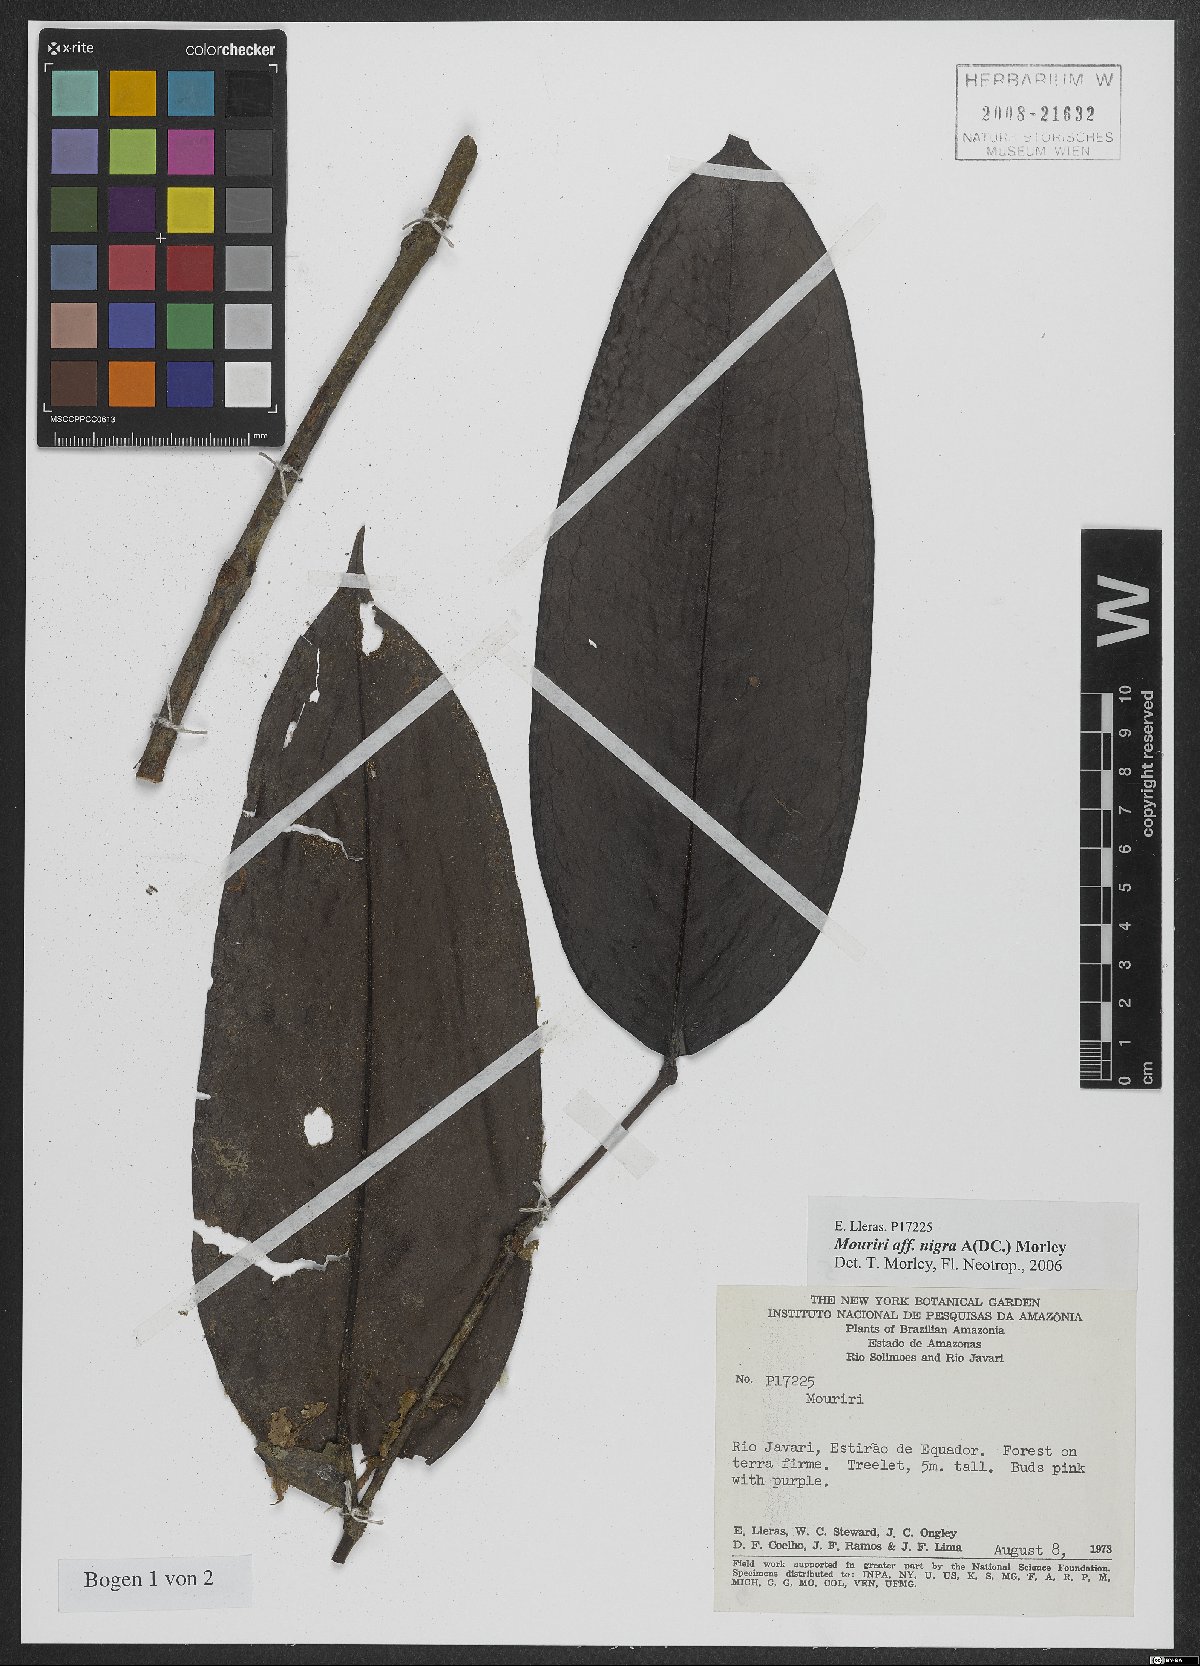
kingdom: Plantae
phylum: Tracheophyta
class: Magnoliopsida
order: Myrtales
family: Melastomataceae
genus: Mouriri
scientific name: Mouriri nigra
